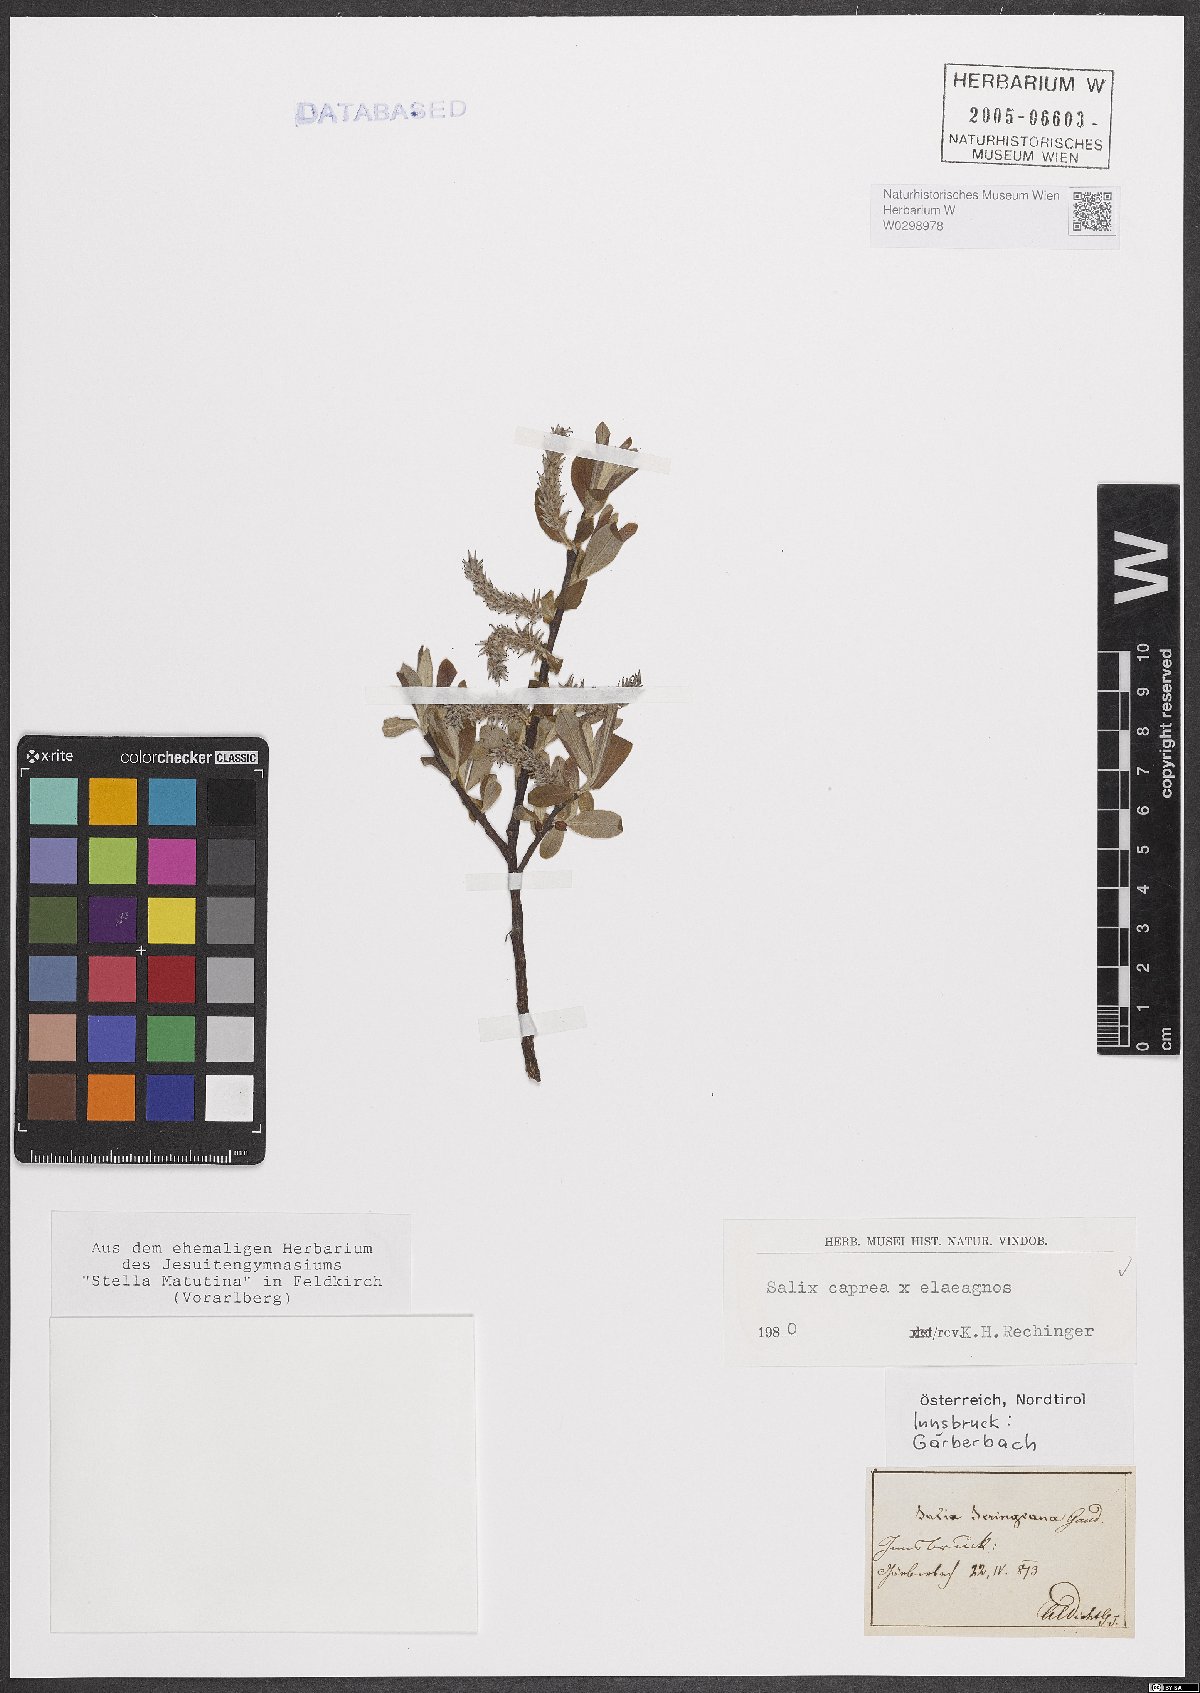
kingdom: Plantae
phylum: Tracheophyta
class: Magnoliopsida
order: Malpighiales
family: Salicaceae
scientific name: Salicaceae
